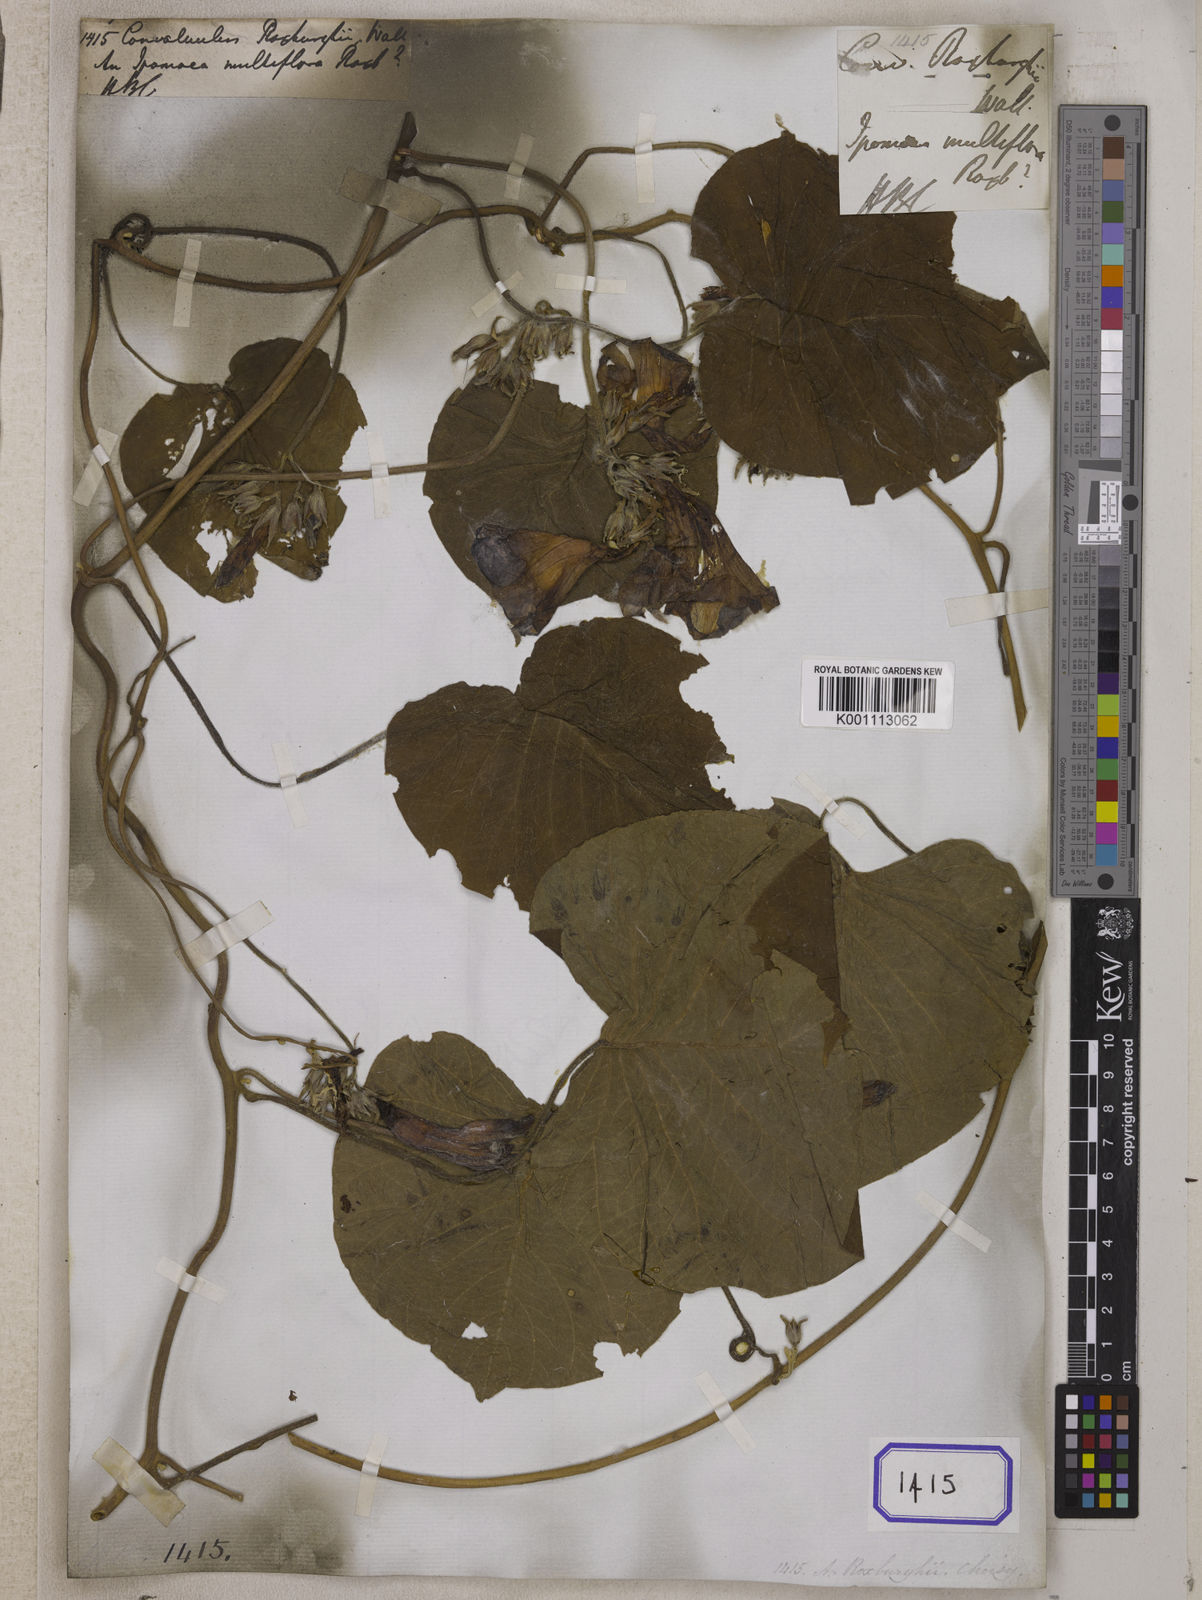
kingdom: Plantae
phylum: Tracheophyta
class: Magnoliopsida
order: Solanales
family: Convolvulaceae
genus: Argyreia
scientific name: Argyreia roxburghii
